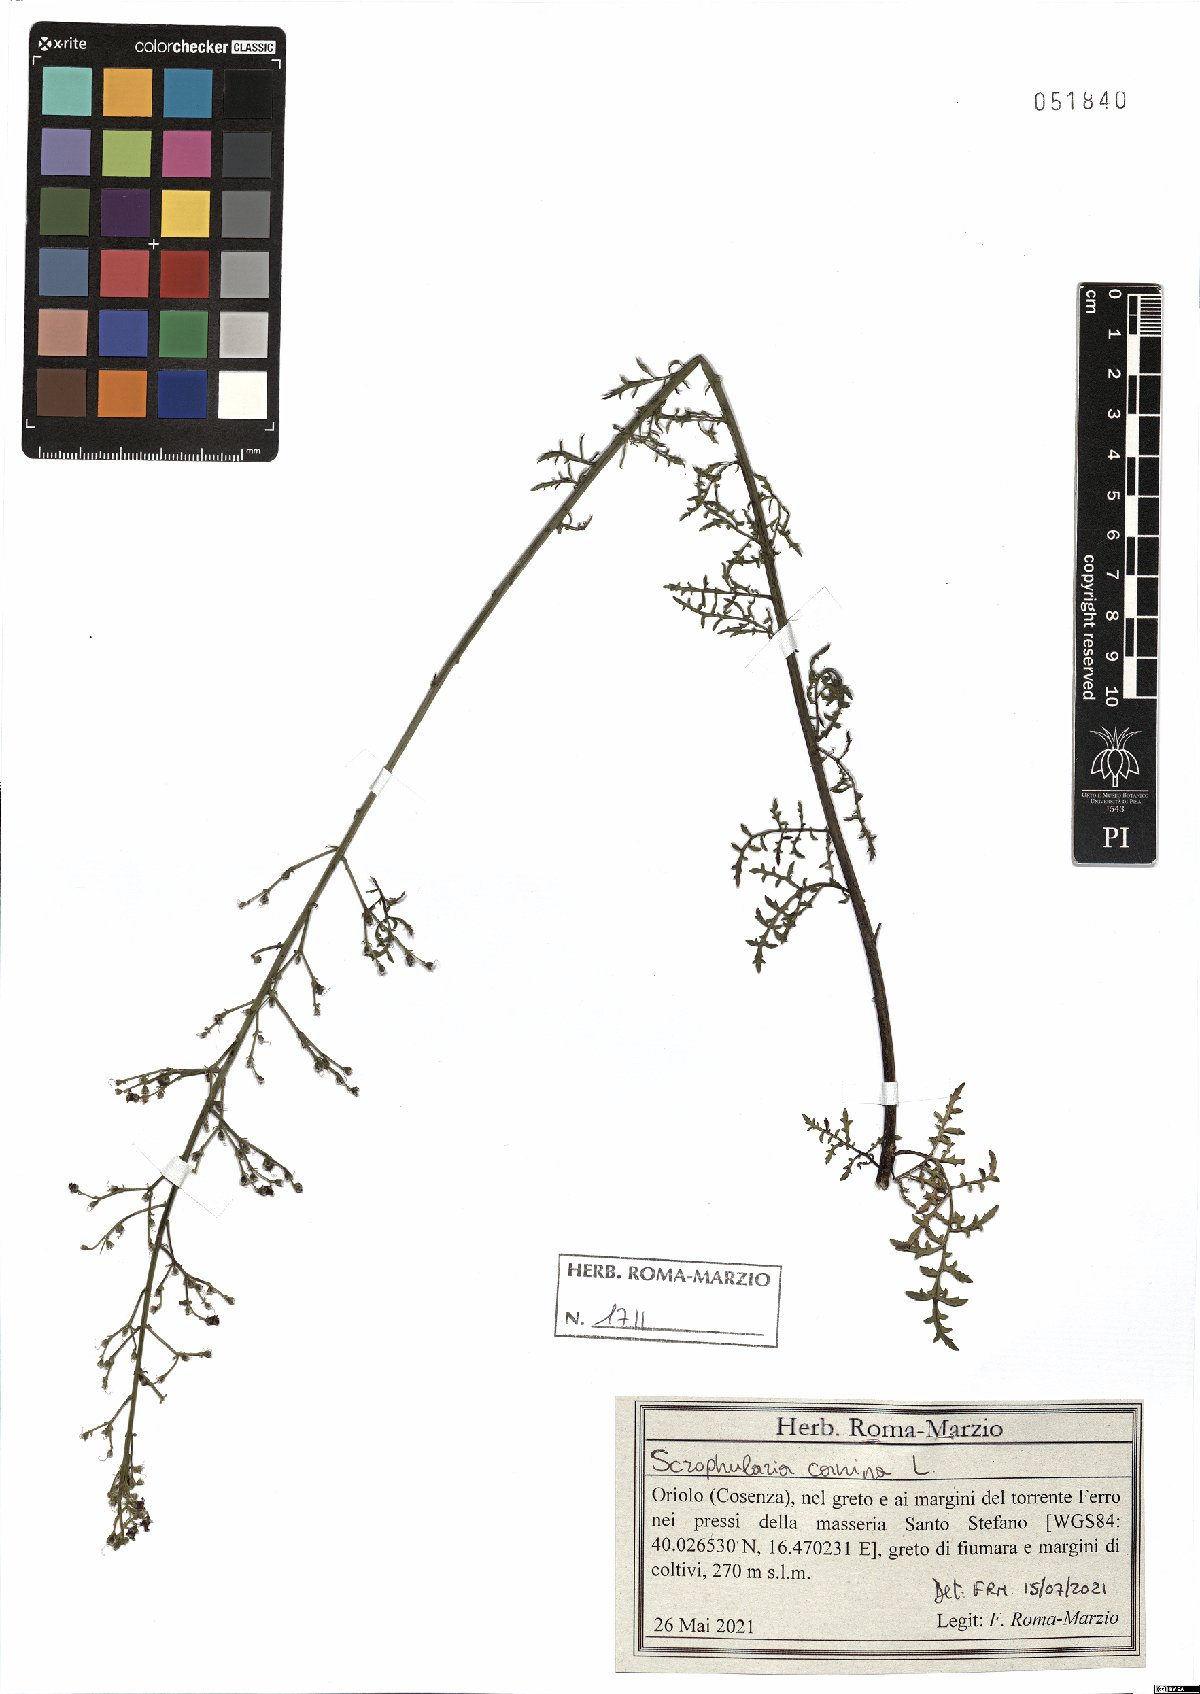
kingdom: Plantae
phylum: Tracheophyta
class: Magnoliopsida
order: Lamiales
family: Scrophulariaceae
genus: Scrophularia
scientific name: Scrophularia canina
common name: French figwort
